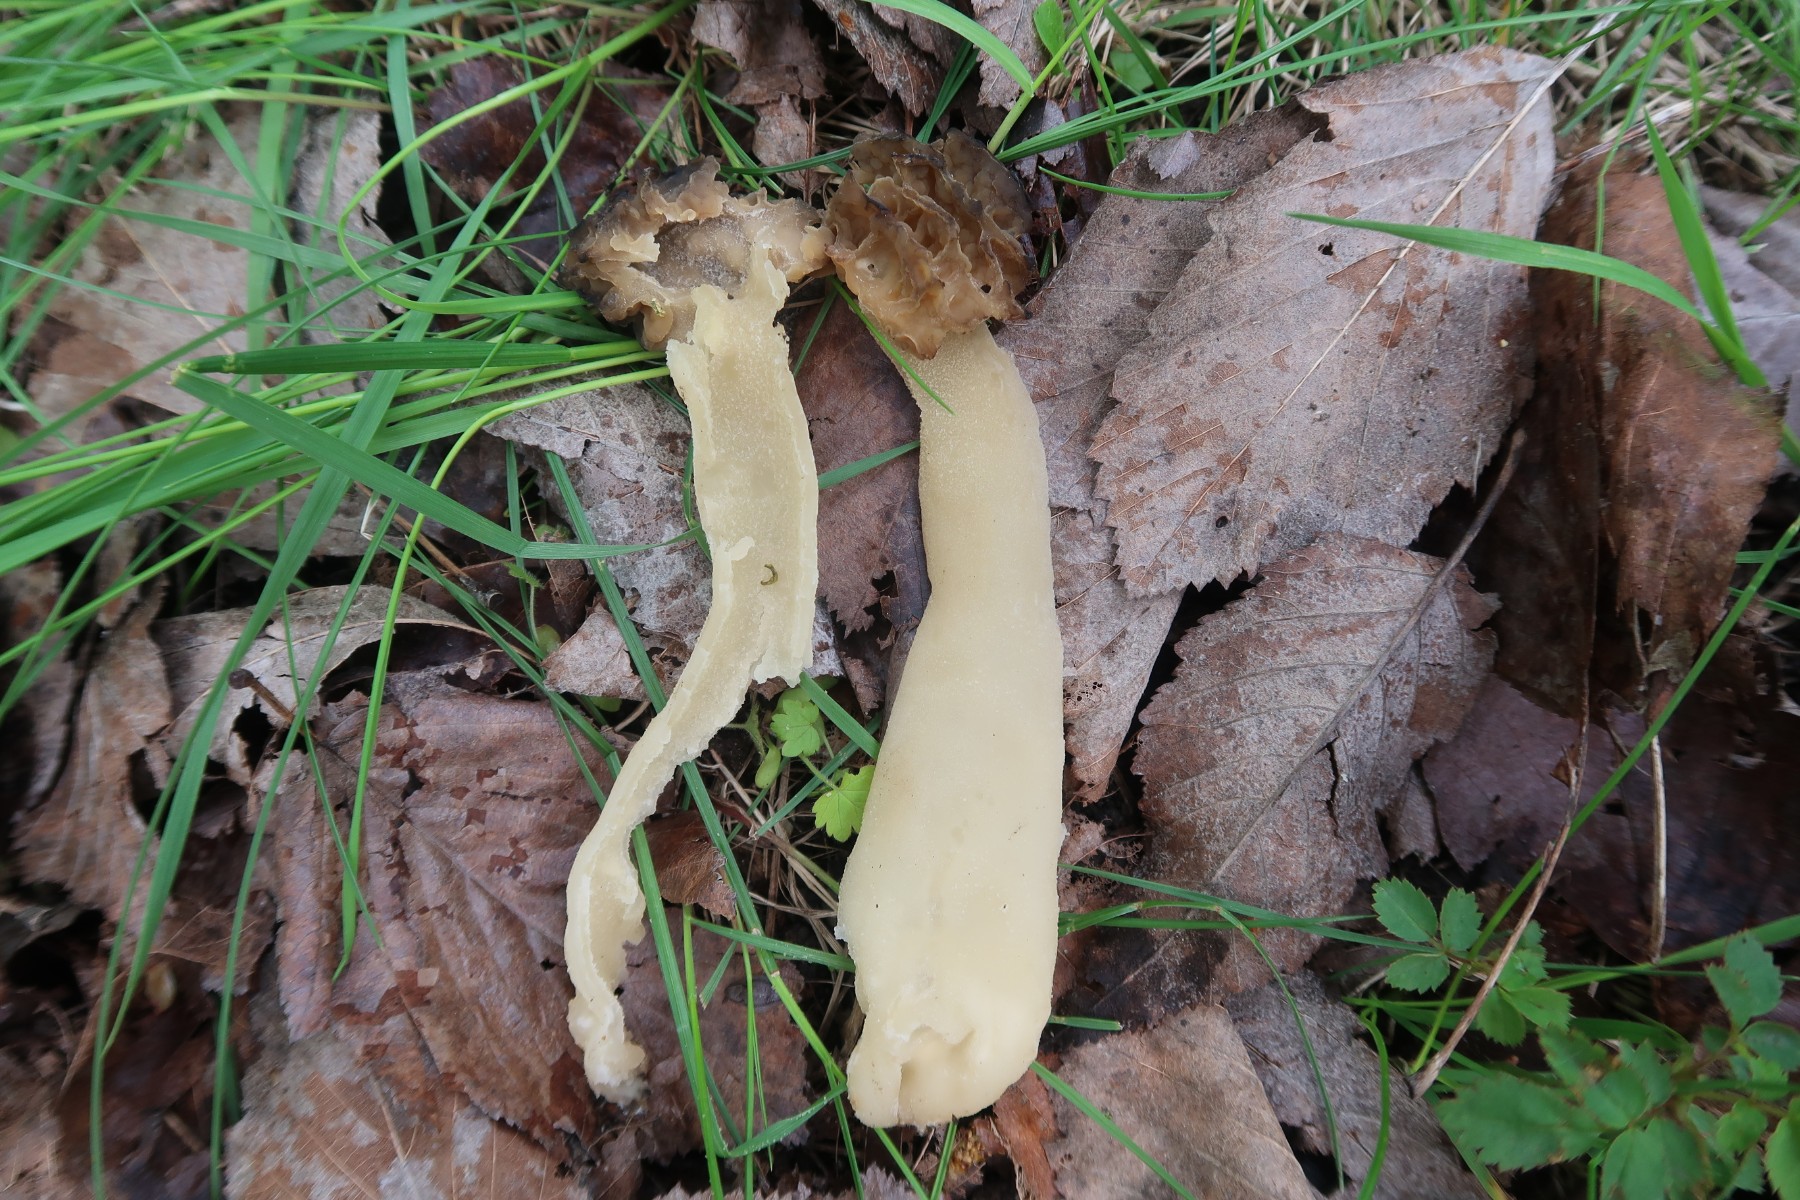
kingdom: Fungi
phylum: Ascomycota
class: Pezizomycetes
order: Pezizales
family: Morchellaceae
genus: Morchella
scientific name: Morchella semilibera
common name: hætte-morkel
